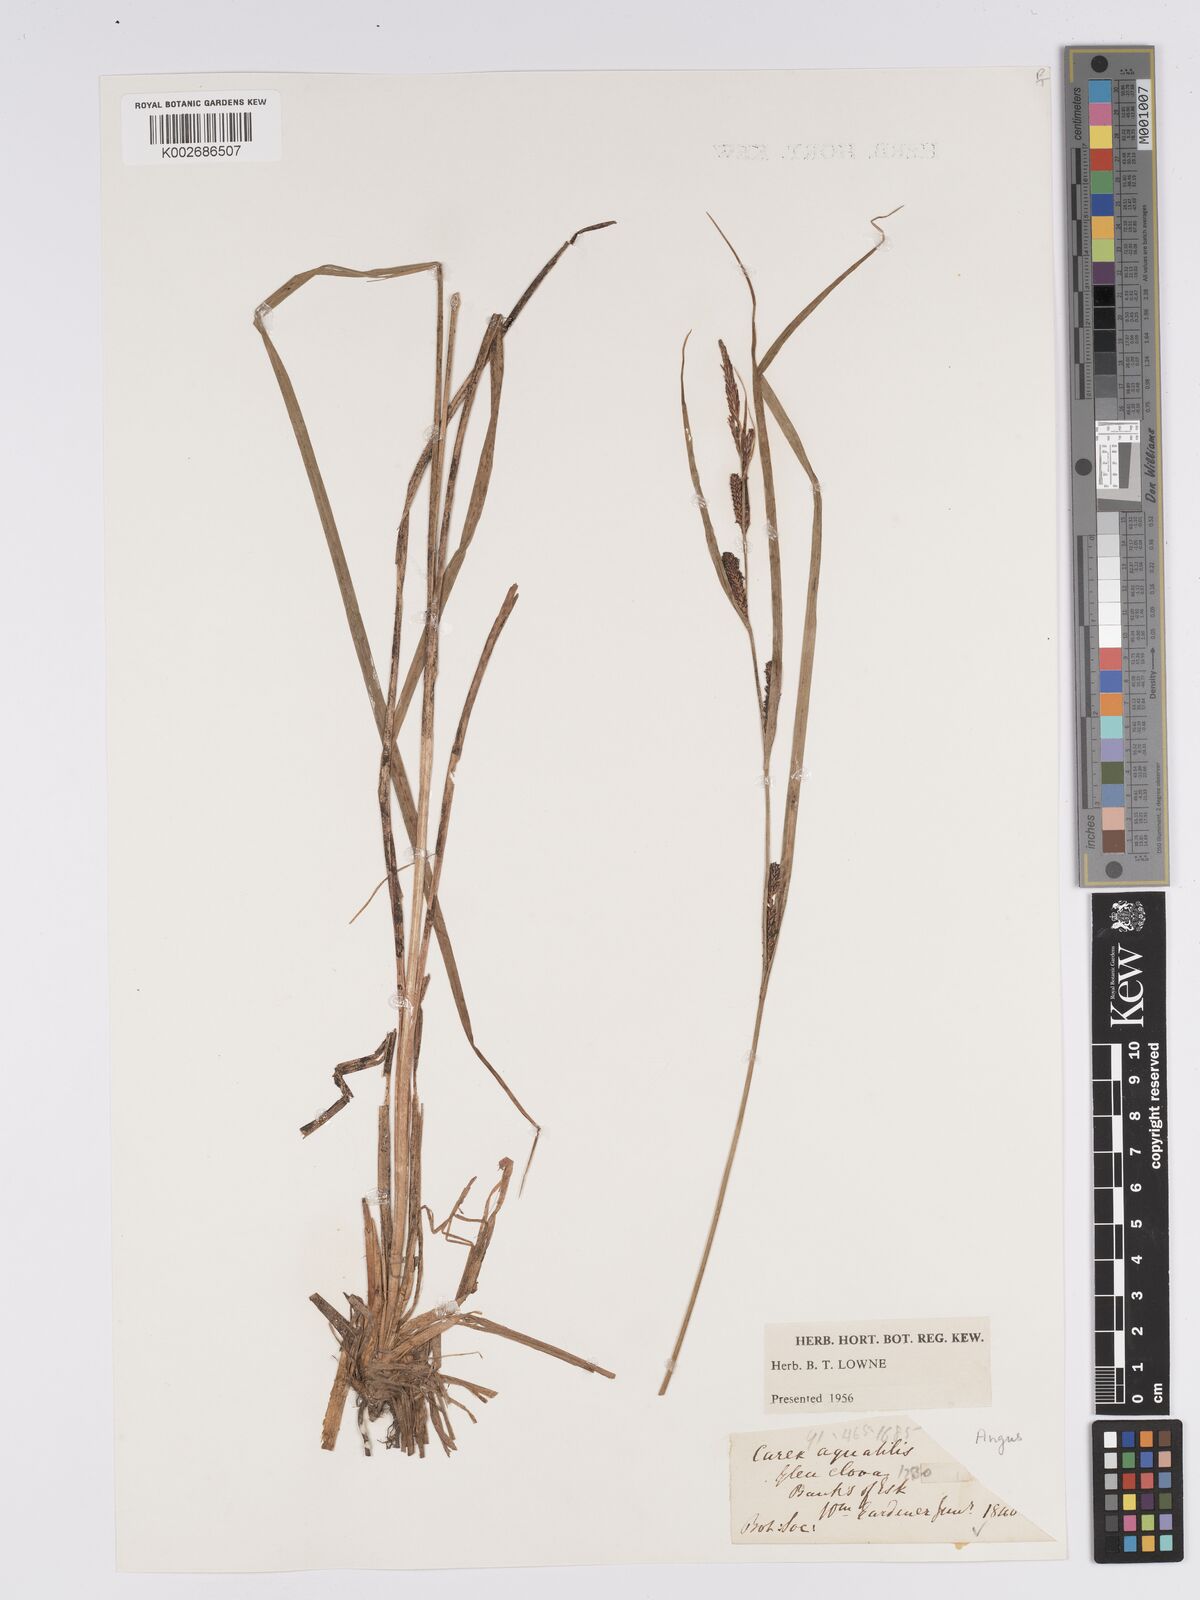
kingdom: Plantae
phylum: Tracheophyta
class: Liliopsida
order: Poales
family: Cyperaceae
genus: Carex
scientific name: Carex aquatilis
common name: Water sedge
